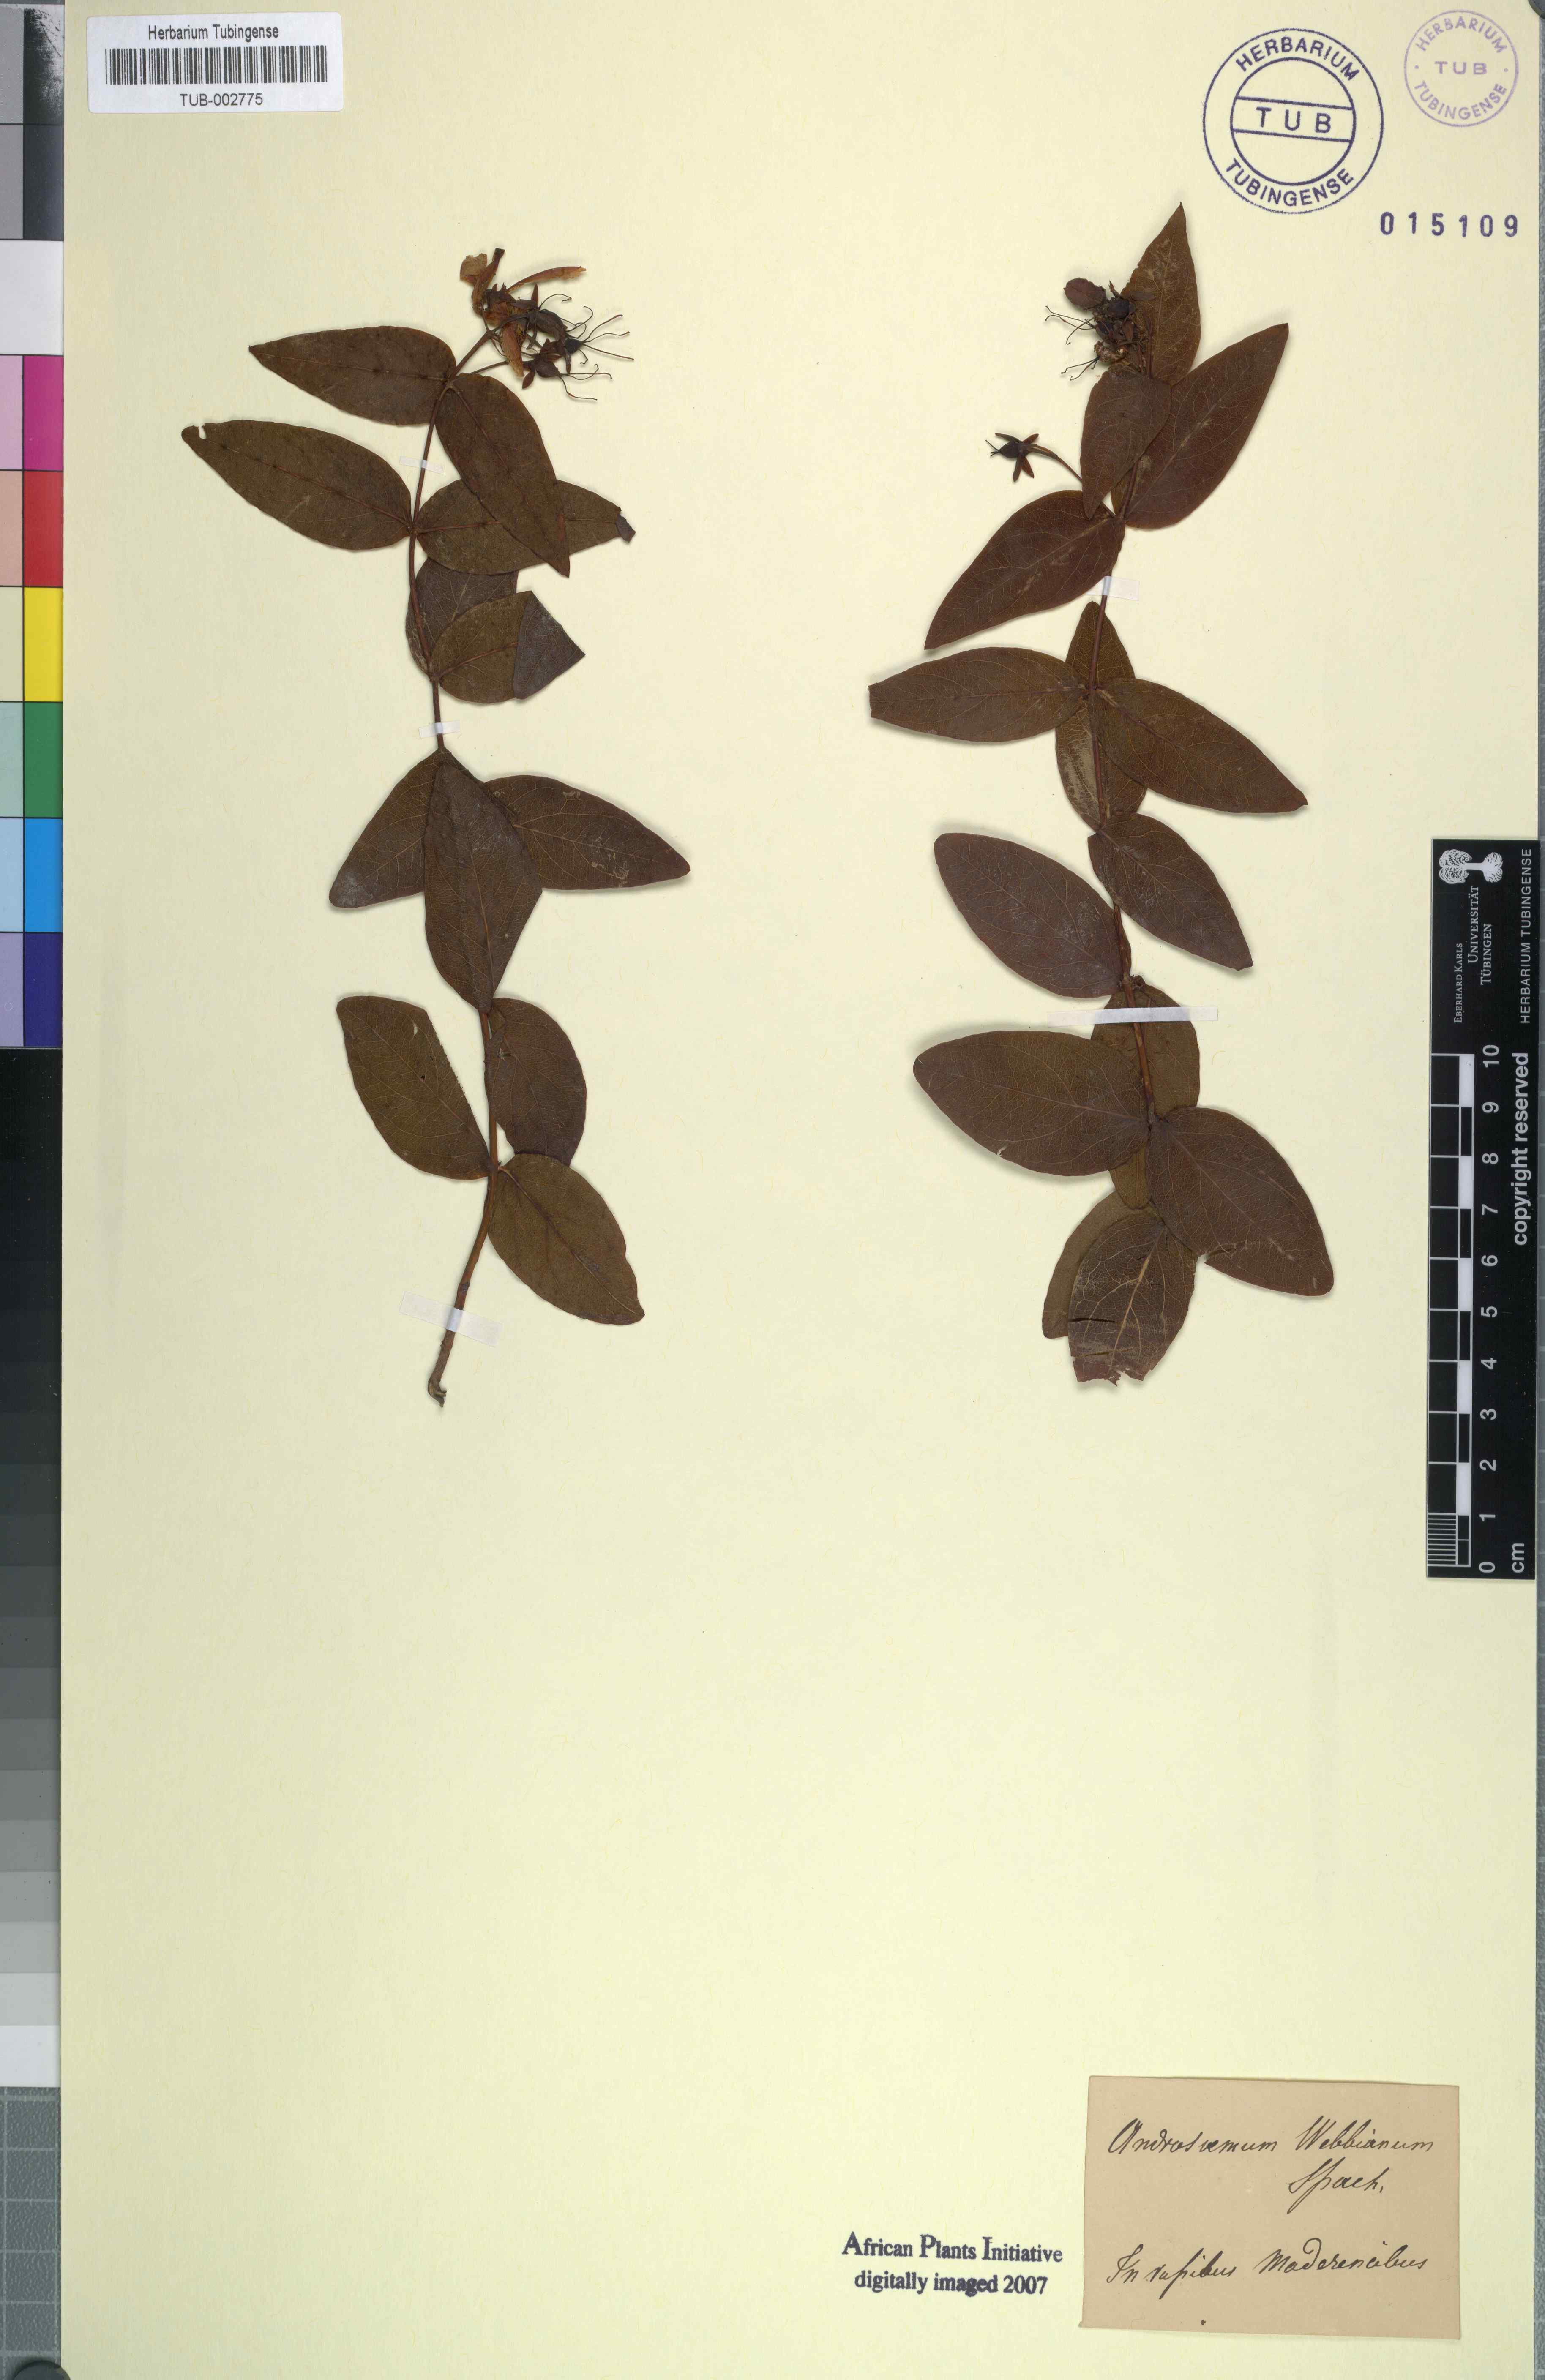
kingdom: Plantae
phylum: Tracheophyta
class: Magnoliopsida
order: Malpighiales
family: Hypericaceae
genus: Hypericum
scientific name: Hypericum calycinum
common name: Rose-of-sharon
